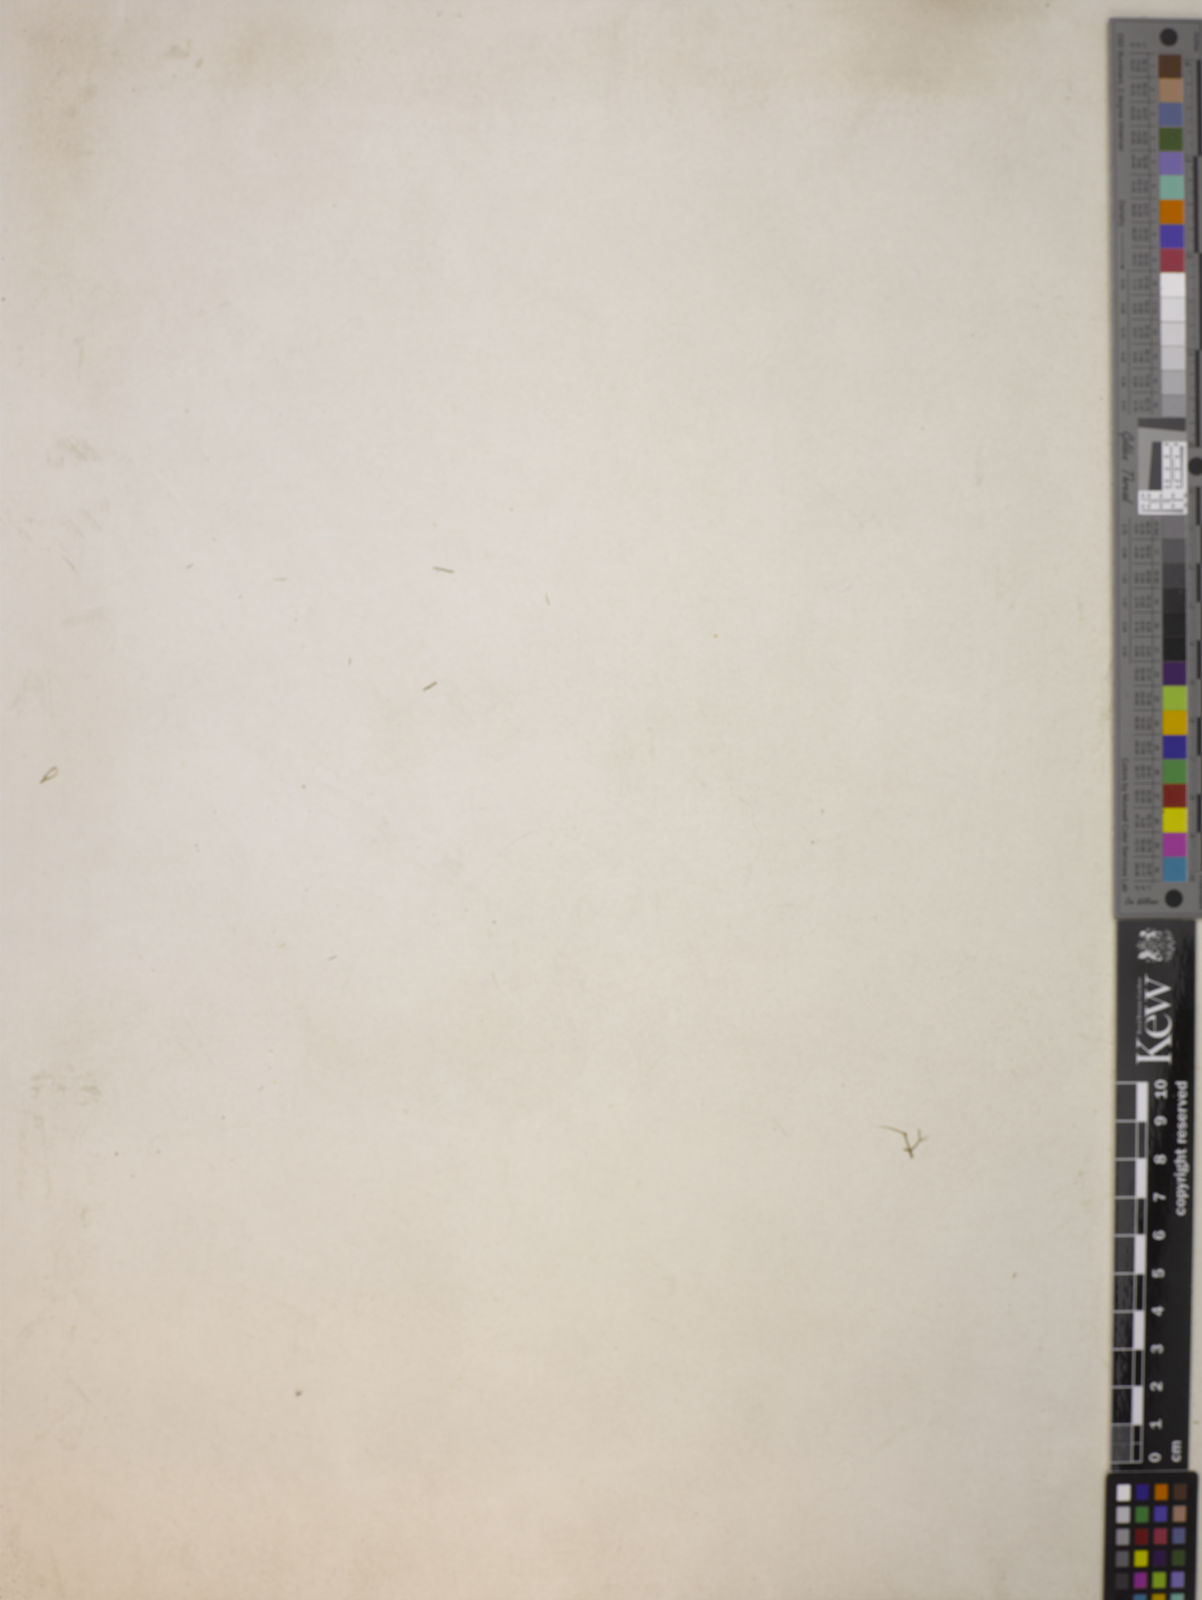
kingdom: Plantae
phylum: Tracheophyta
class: Magnoliopsida
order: Ranunculales
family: Ranunculaceae
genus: Nigella
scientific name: Nigella damascena
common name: Love-in-a-mist
